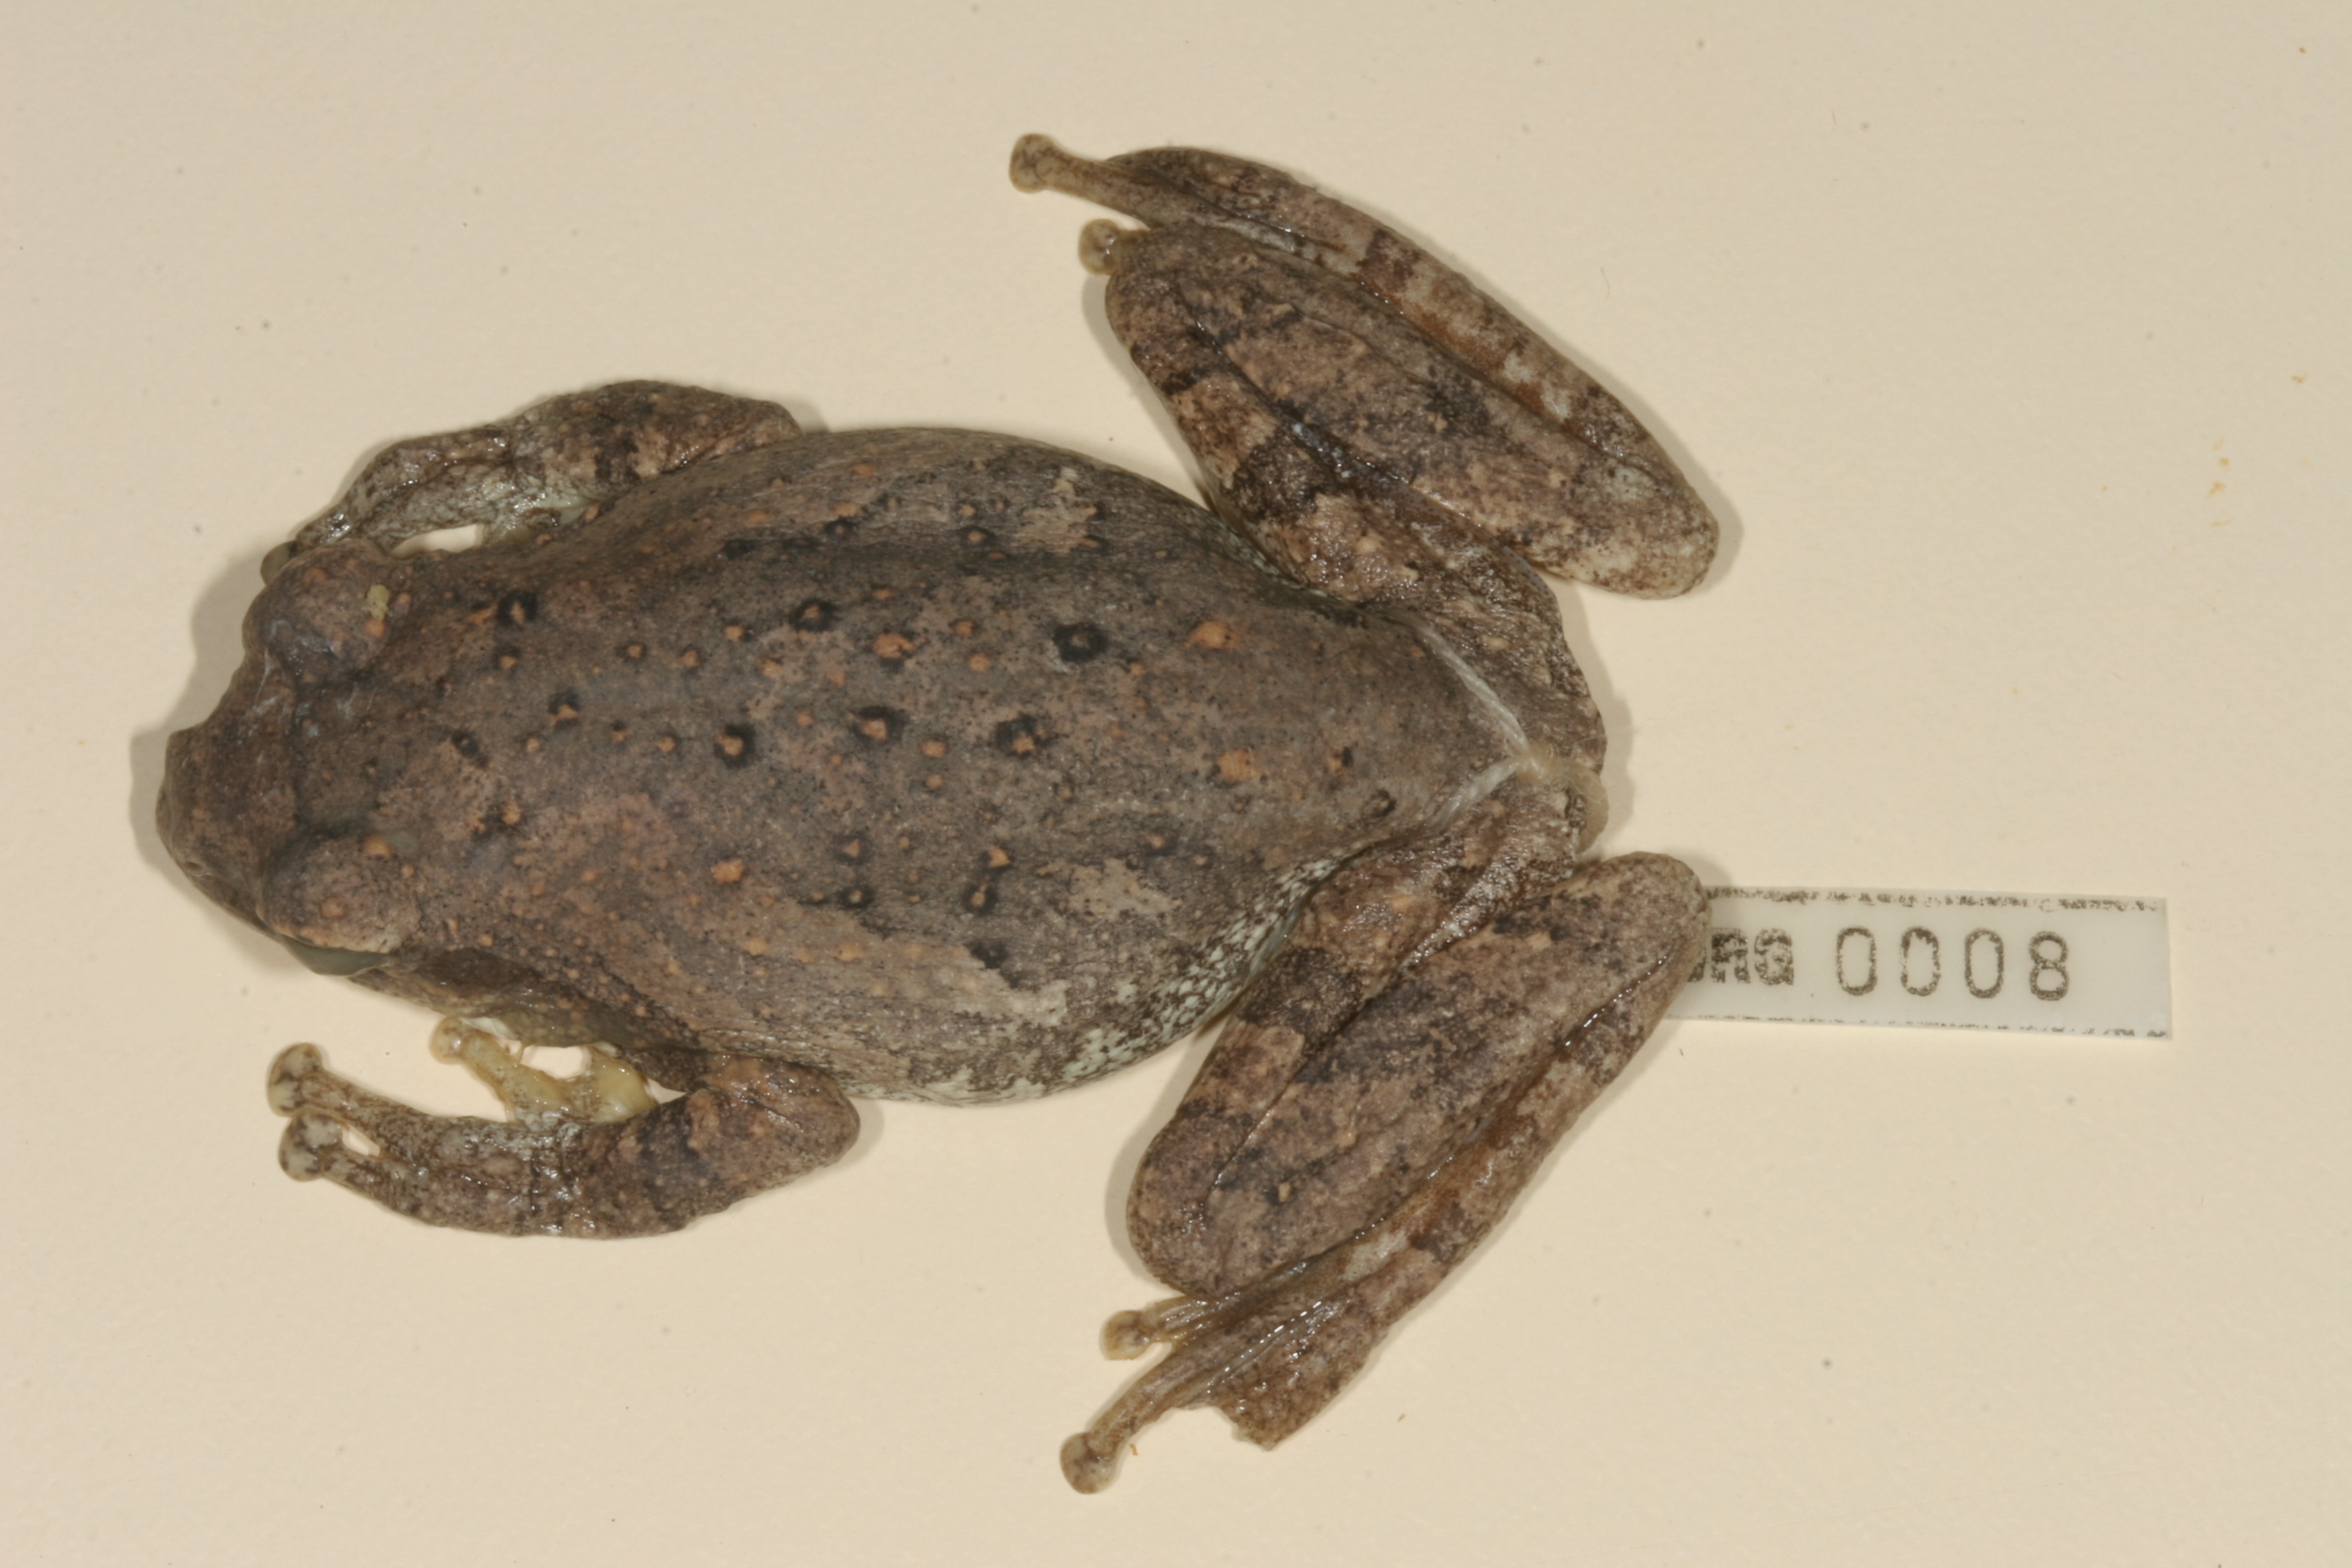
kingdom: Animalia
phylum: Chordata
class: Amphibia
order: Anura
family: Rhacophoridae
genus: Chiromantis
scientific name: Chiromantis xerampelina
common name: African gray treefrog
